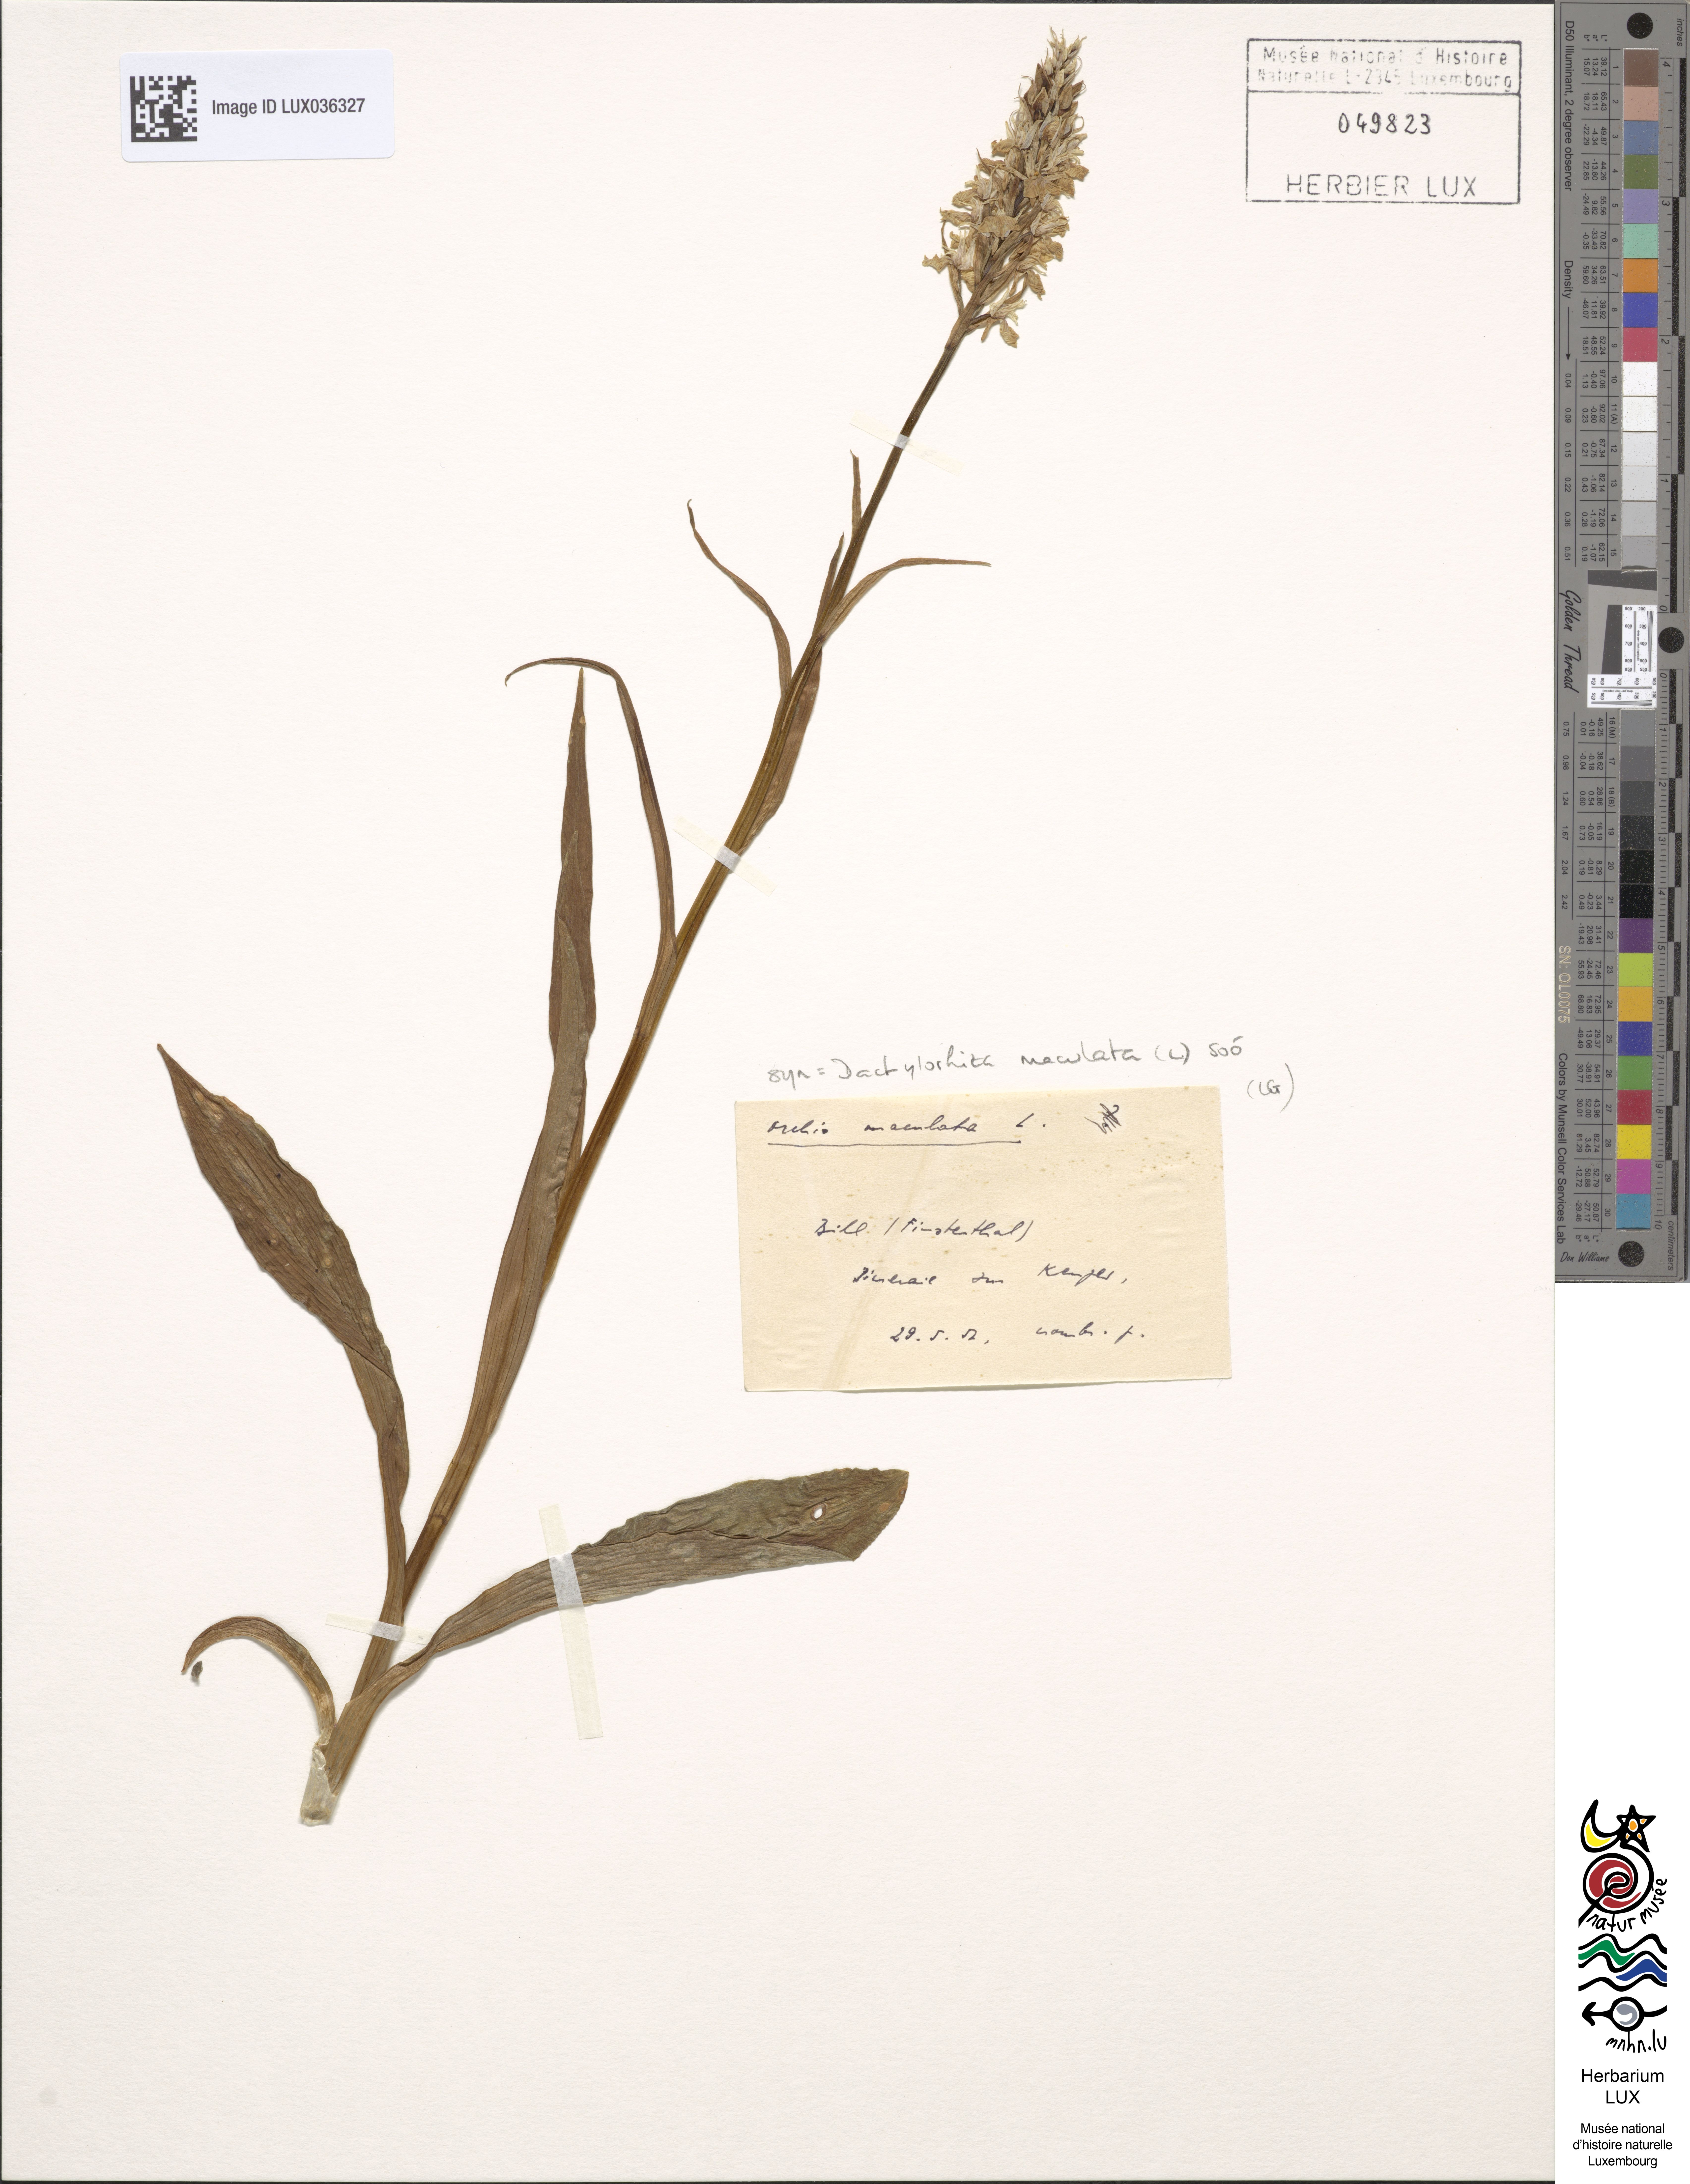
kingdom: Plantae
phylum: Tracheophyta
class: Liliopsida
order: Asparagales
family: Orchidaceae
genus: Dactylorhiza
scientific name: Dactylorhiza maculata
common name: Heath spotted-orchid
